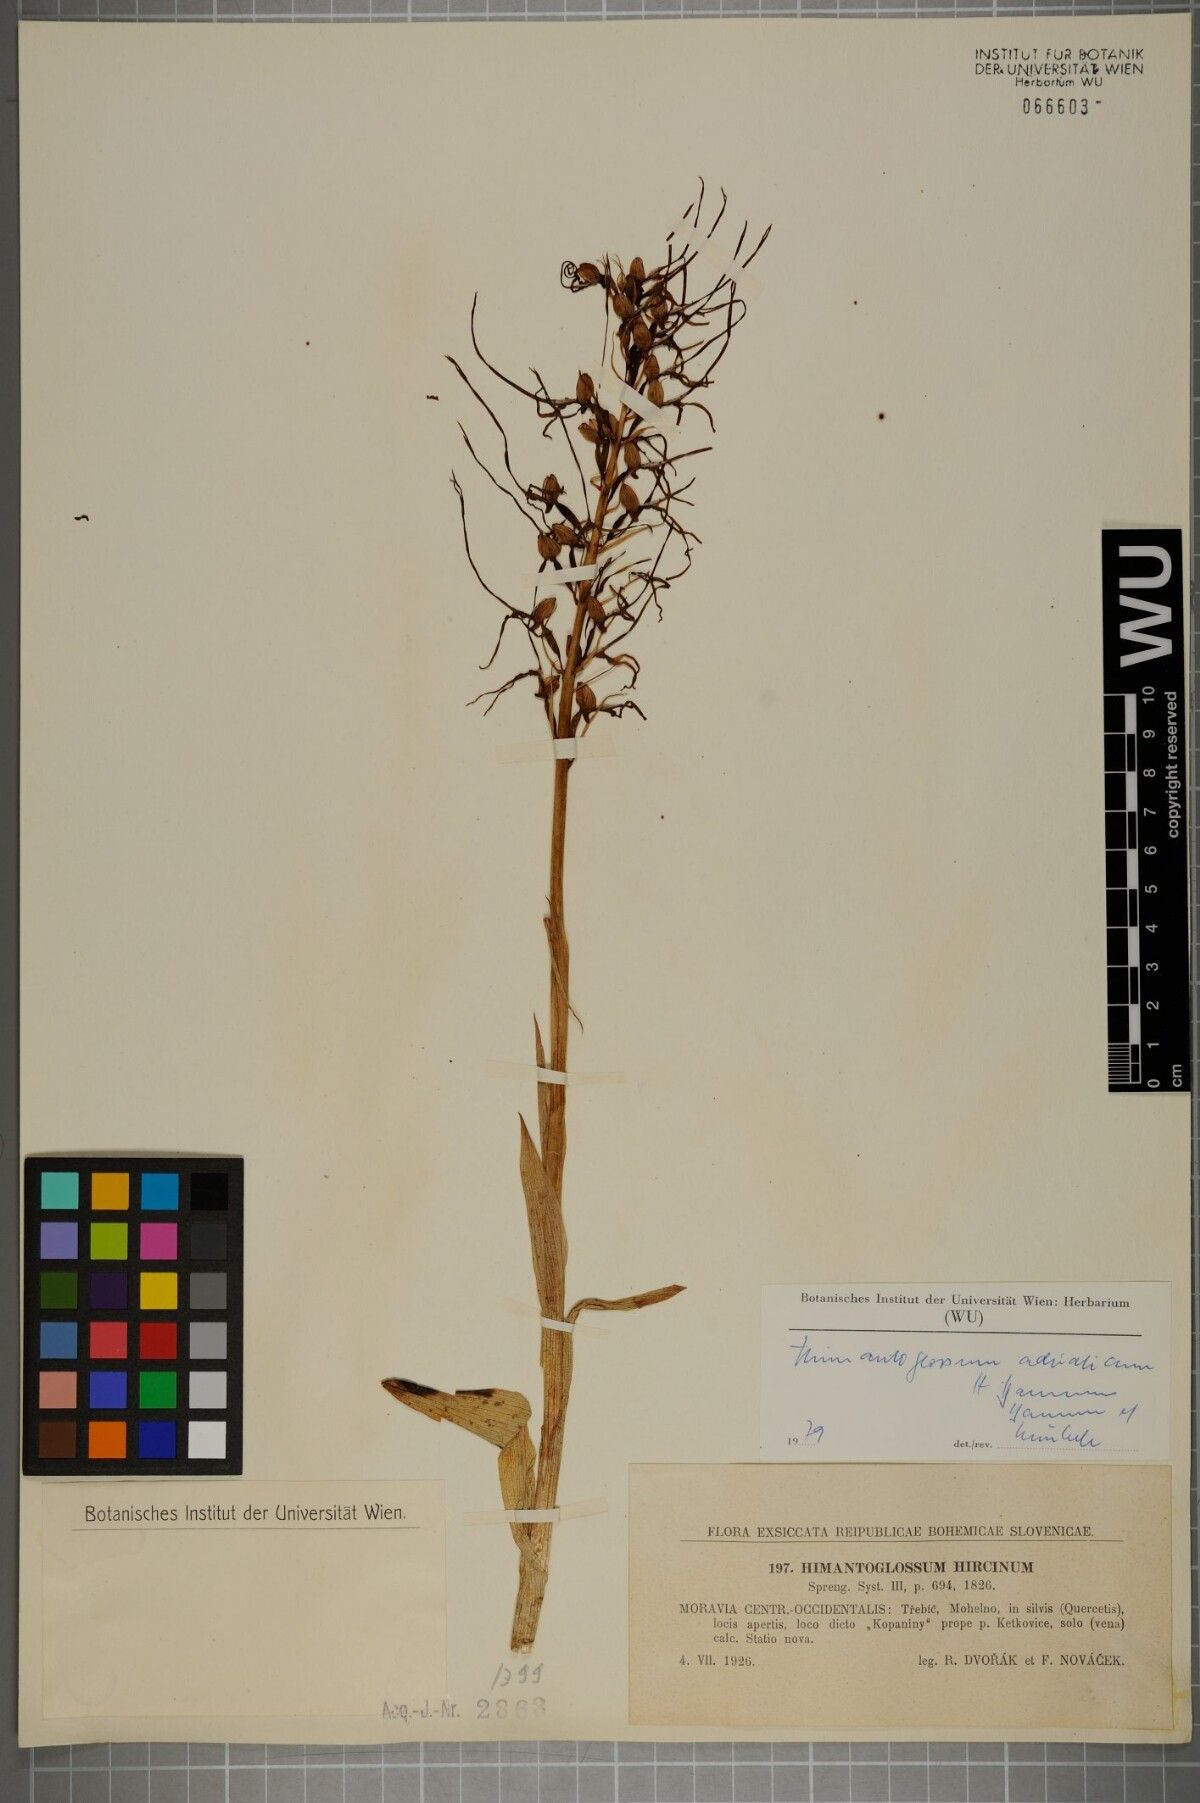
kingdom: Plantae
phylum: Tracheophyta
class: Liliopsida
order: Asparagales
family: Orchidaceae
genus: Himantoglossum
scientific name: Himantoglossum adriaticum
